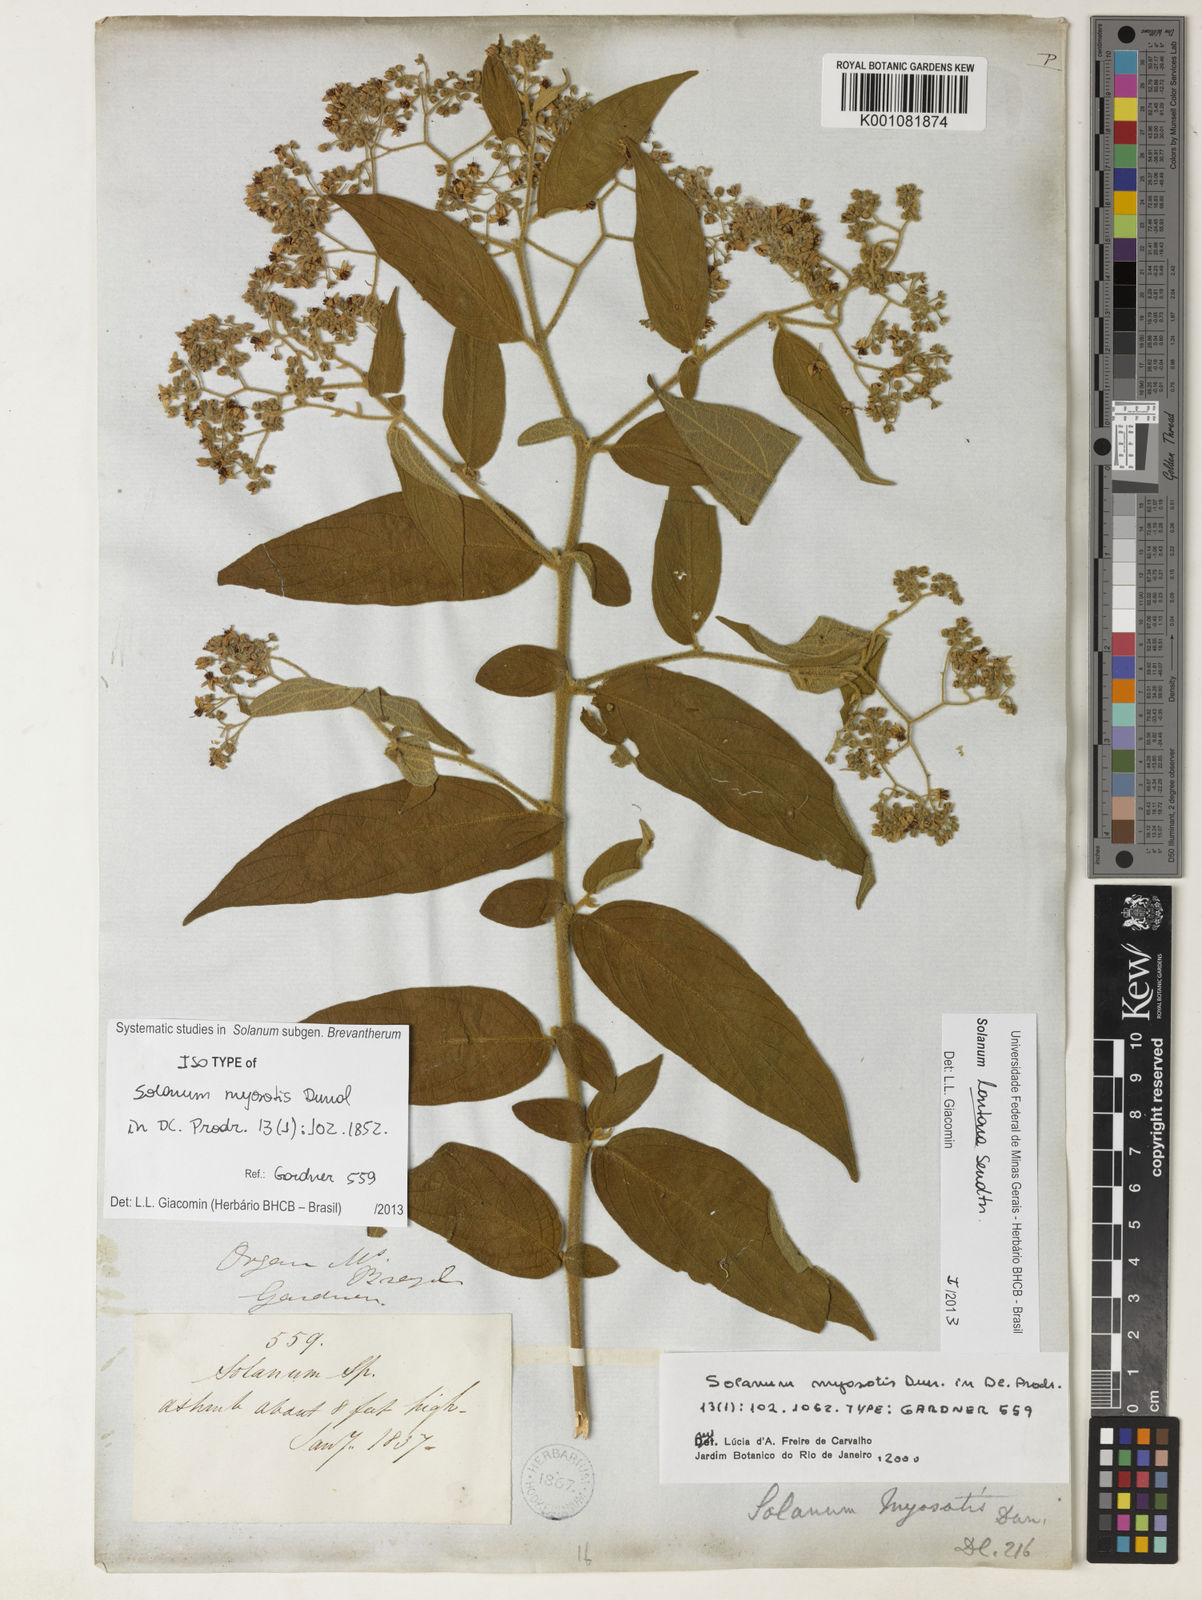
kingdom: Plantae
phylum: Tracheophyta
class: Magnoliopsida
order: Solanales
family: Solanaceae
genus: Solanum
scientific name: Solanum lantana
